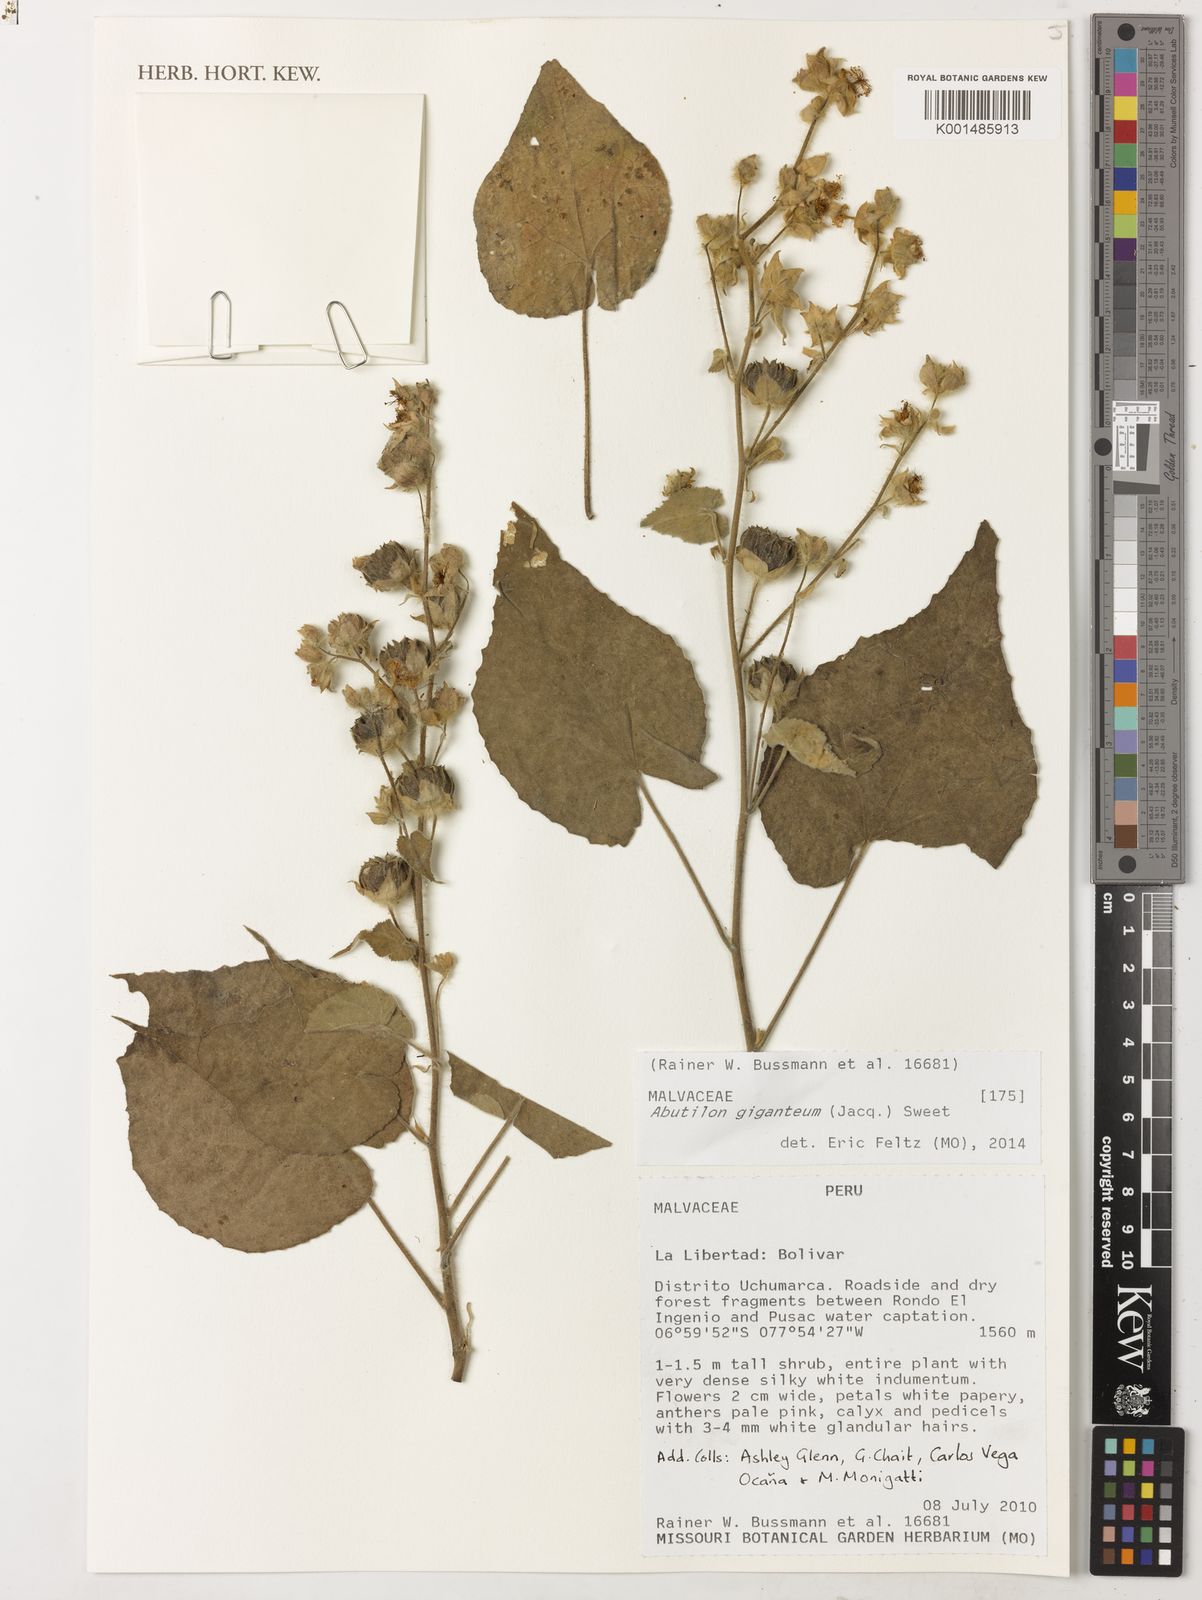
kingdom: Plantae
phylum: Tracheophyta
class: Magnoliopsida
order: Malvales
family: Malvaceae
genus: Abutilon
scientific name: Abutilon giganteum
